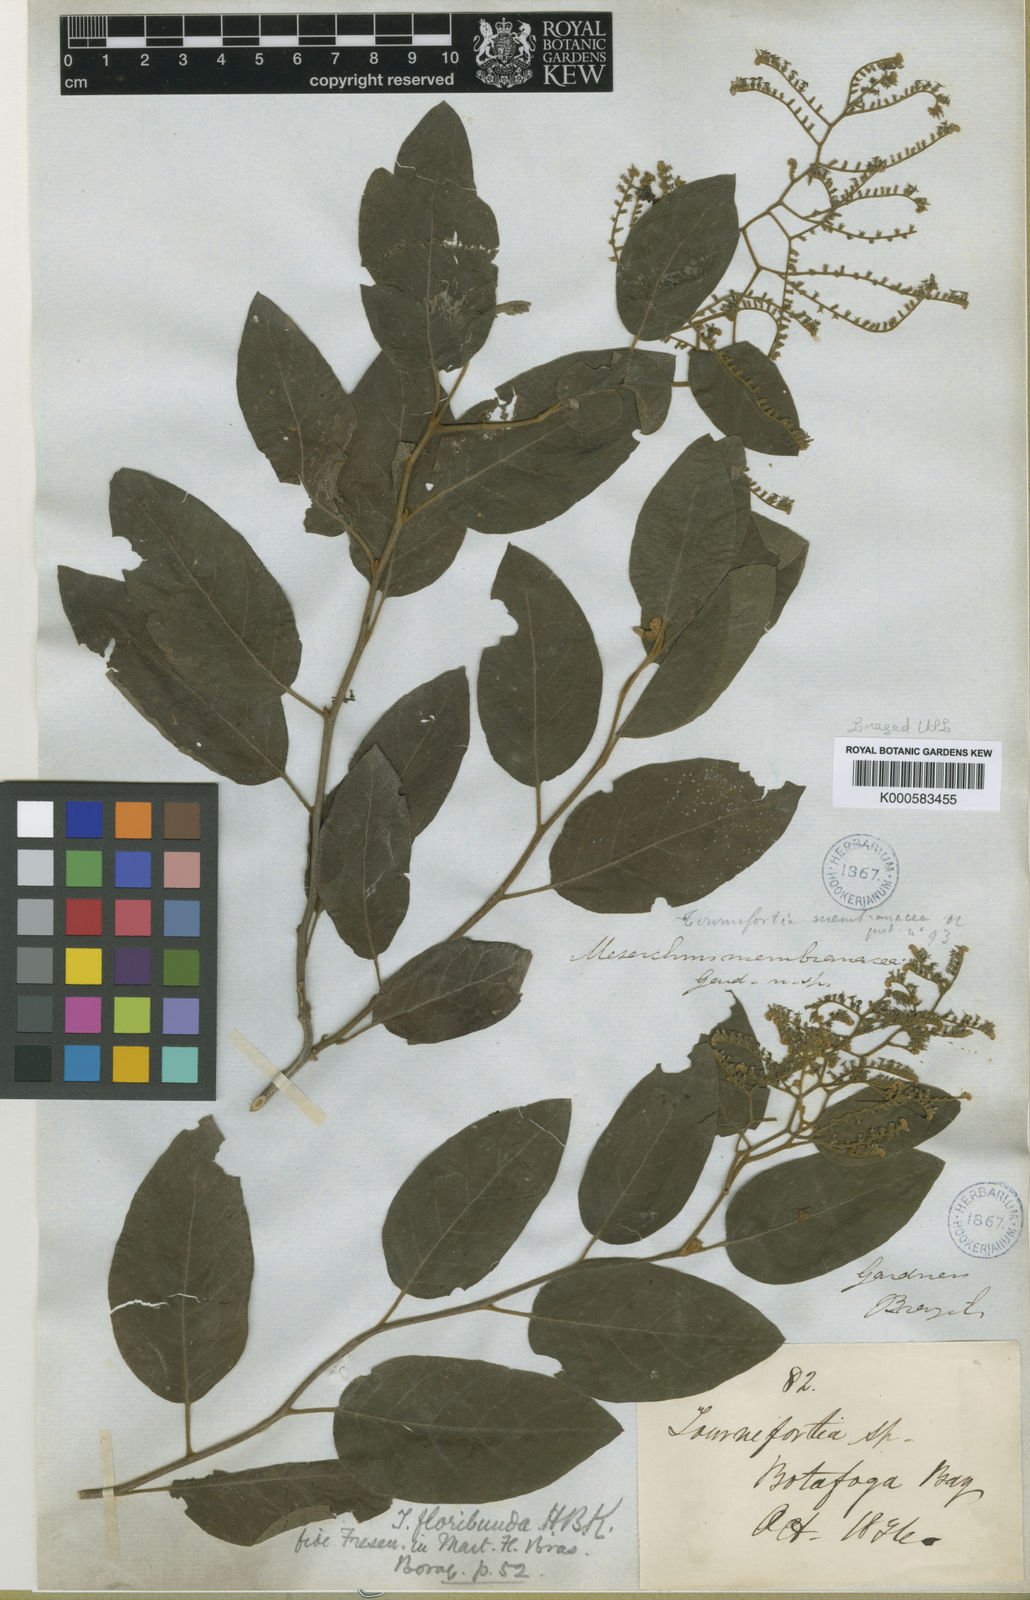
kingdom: Plantae
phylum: Tracheophyta
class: Magnoliopsida
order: Boraginales
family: Heliotropiaceae
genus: Myriopus
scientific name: Myriopus membranaceus
